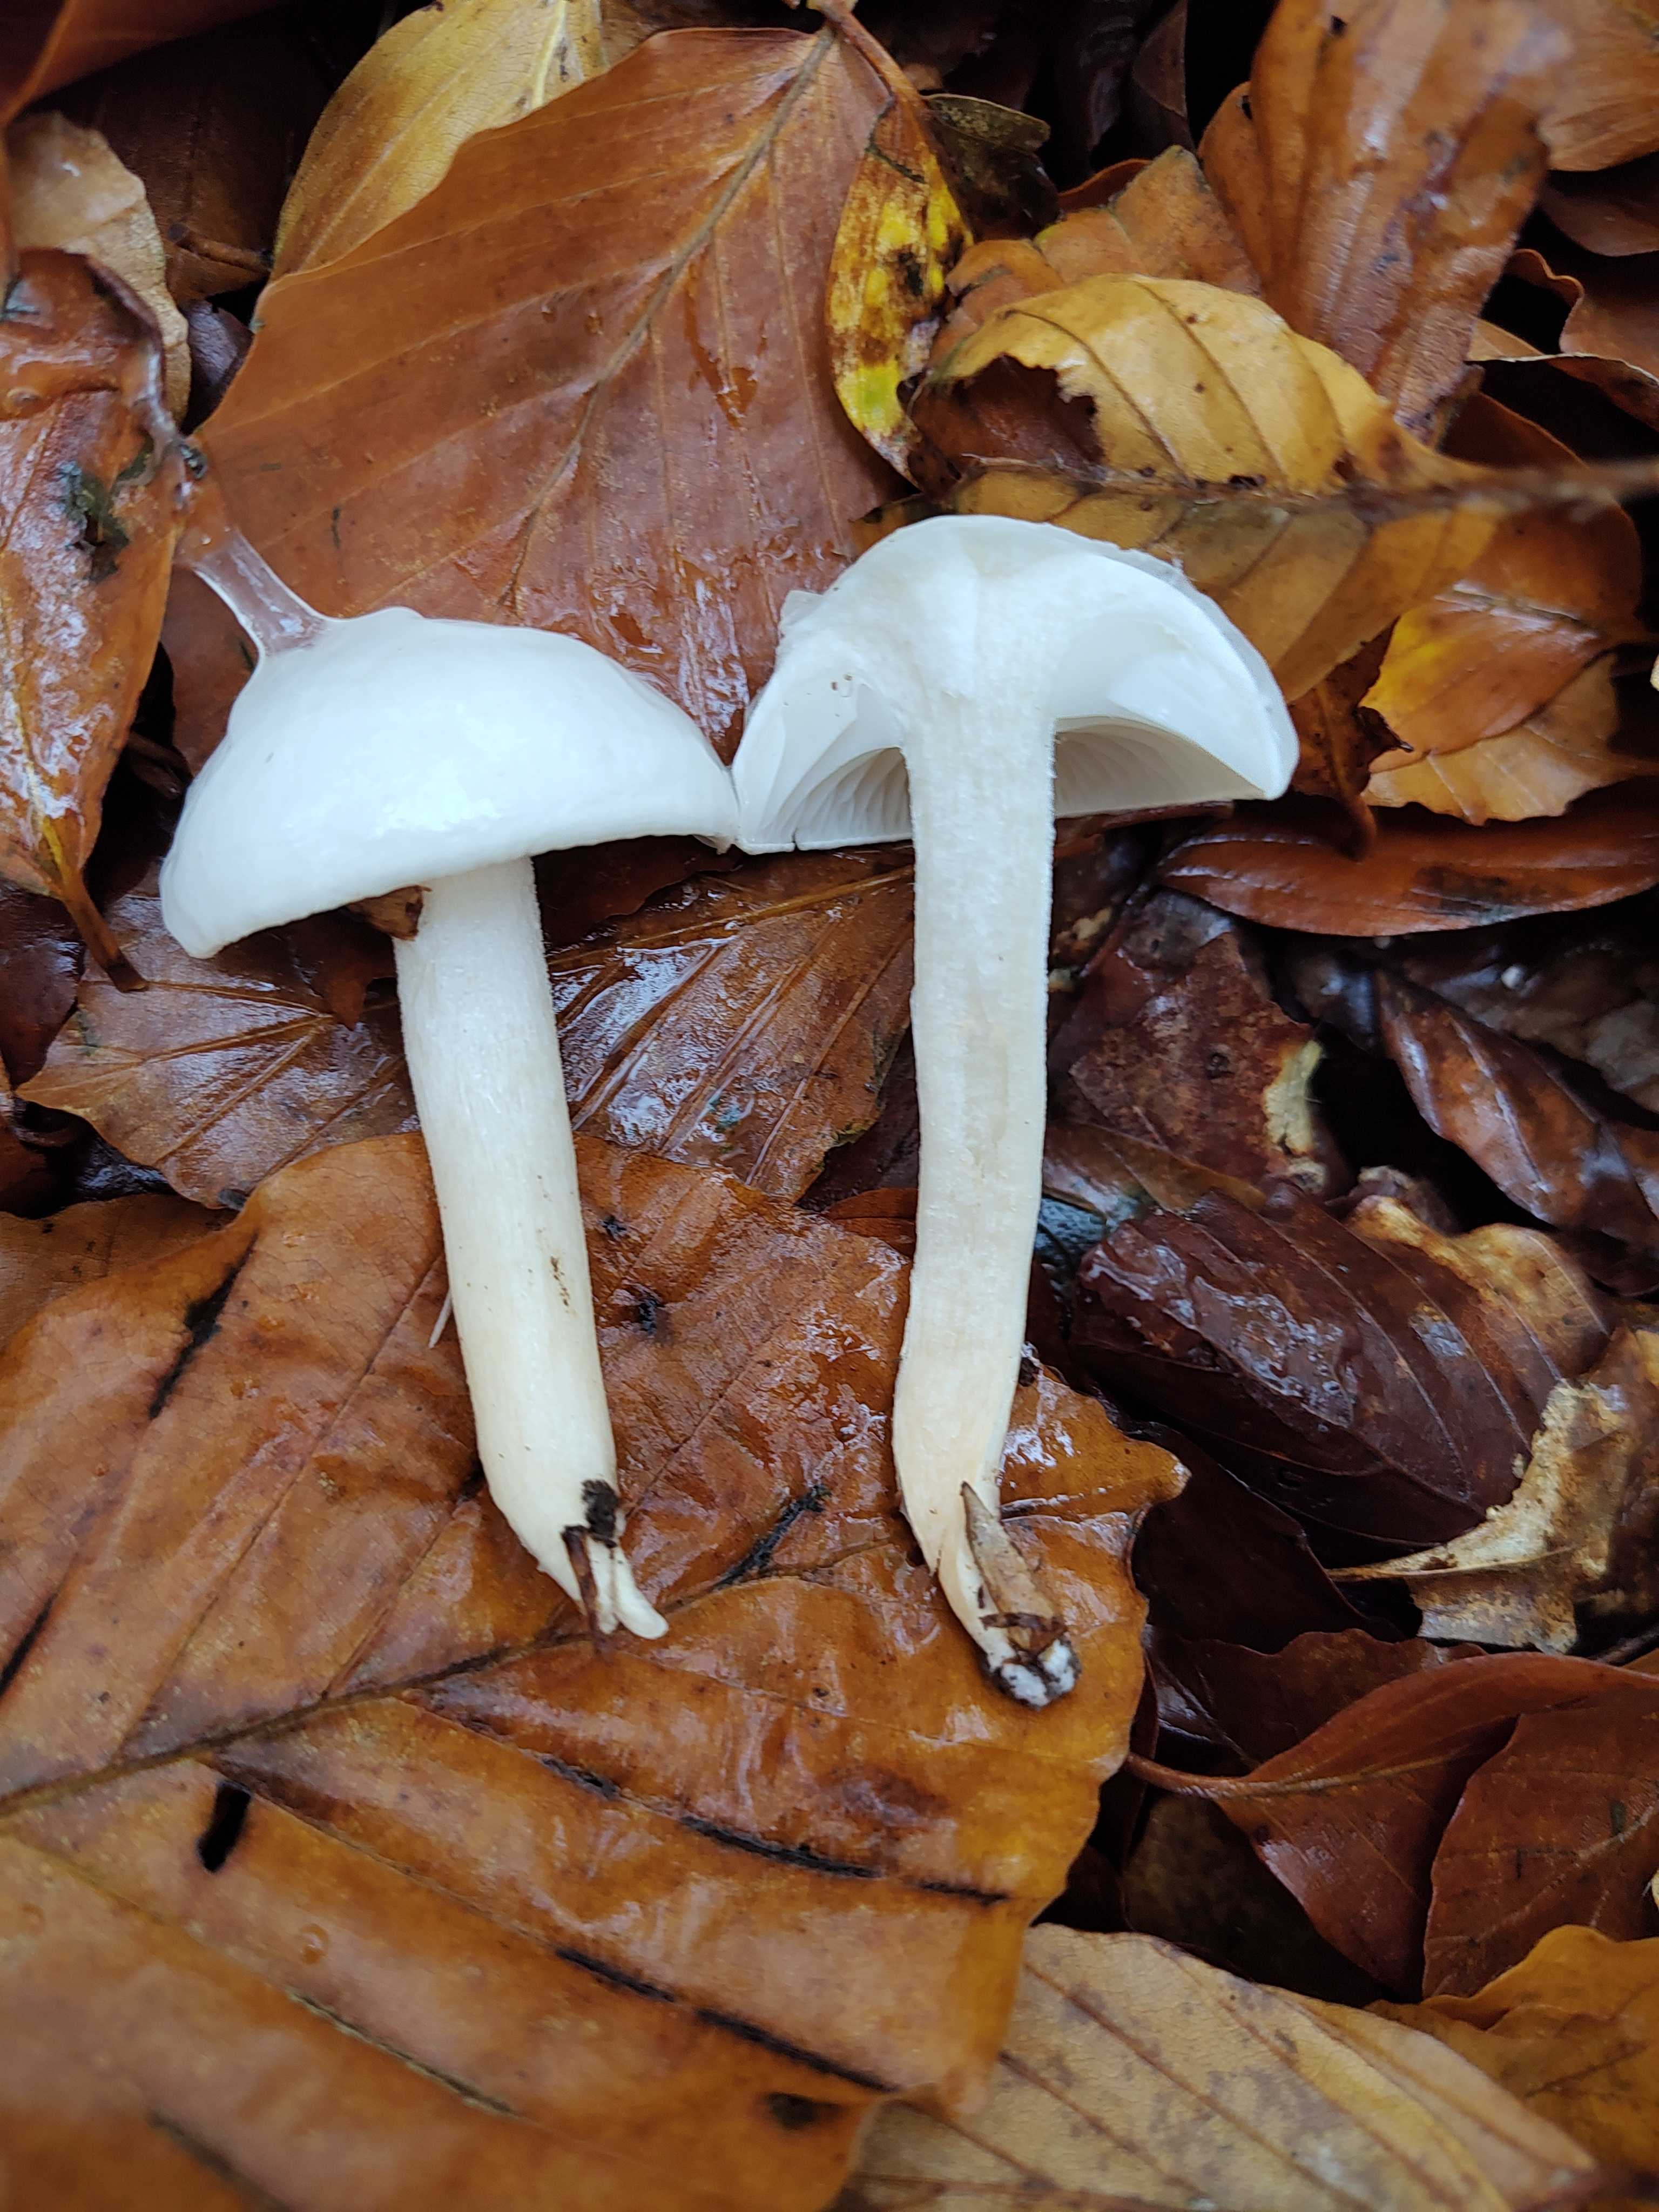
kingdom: Fungi
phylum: Basidiomycota
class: Agaricomycetes
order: Agaricales
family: Hygrophoraceae
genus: Hygrophorus
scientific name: Hygrophorus eburneus
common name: elfenbens-sneglehat
